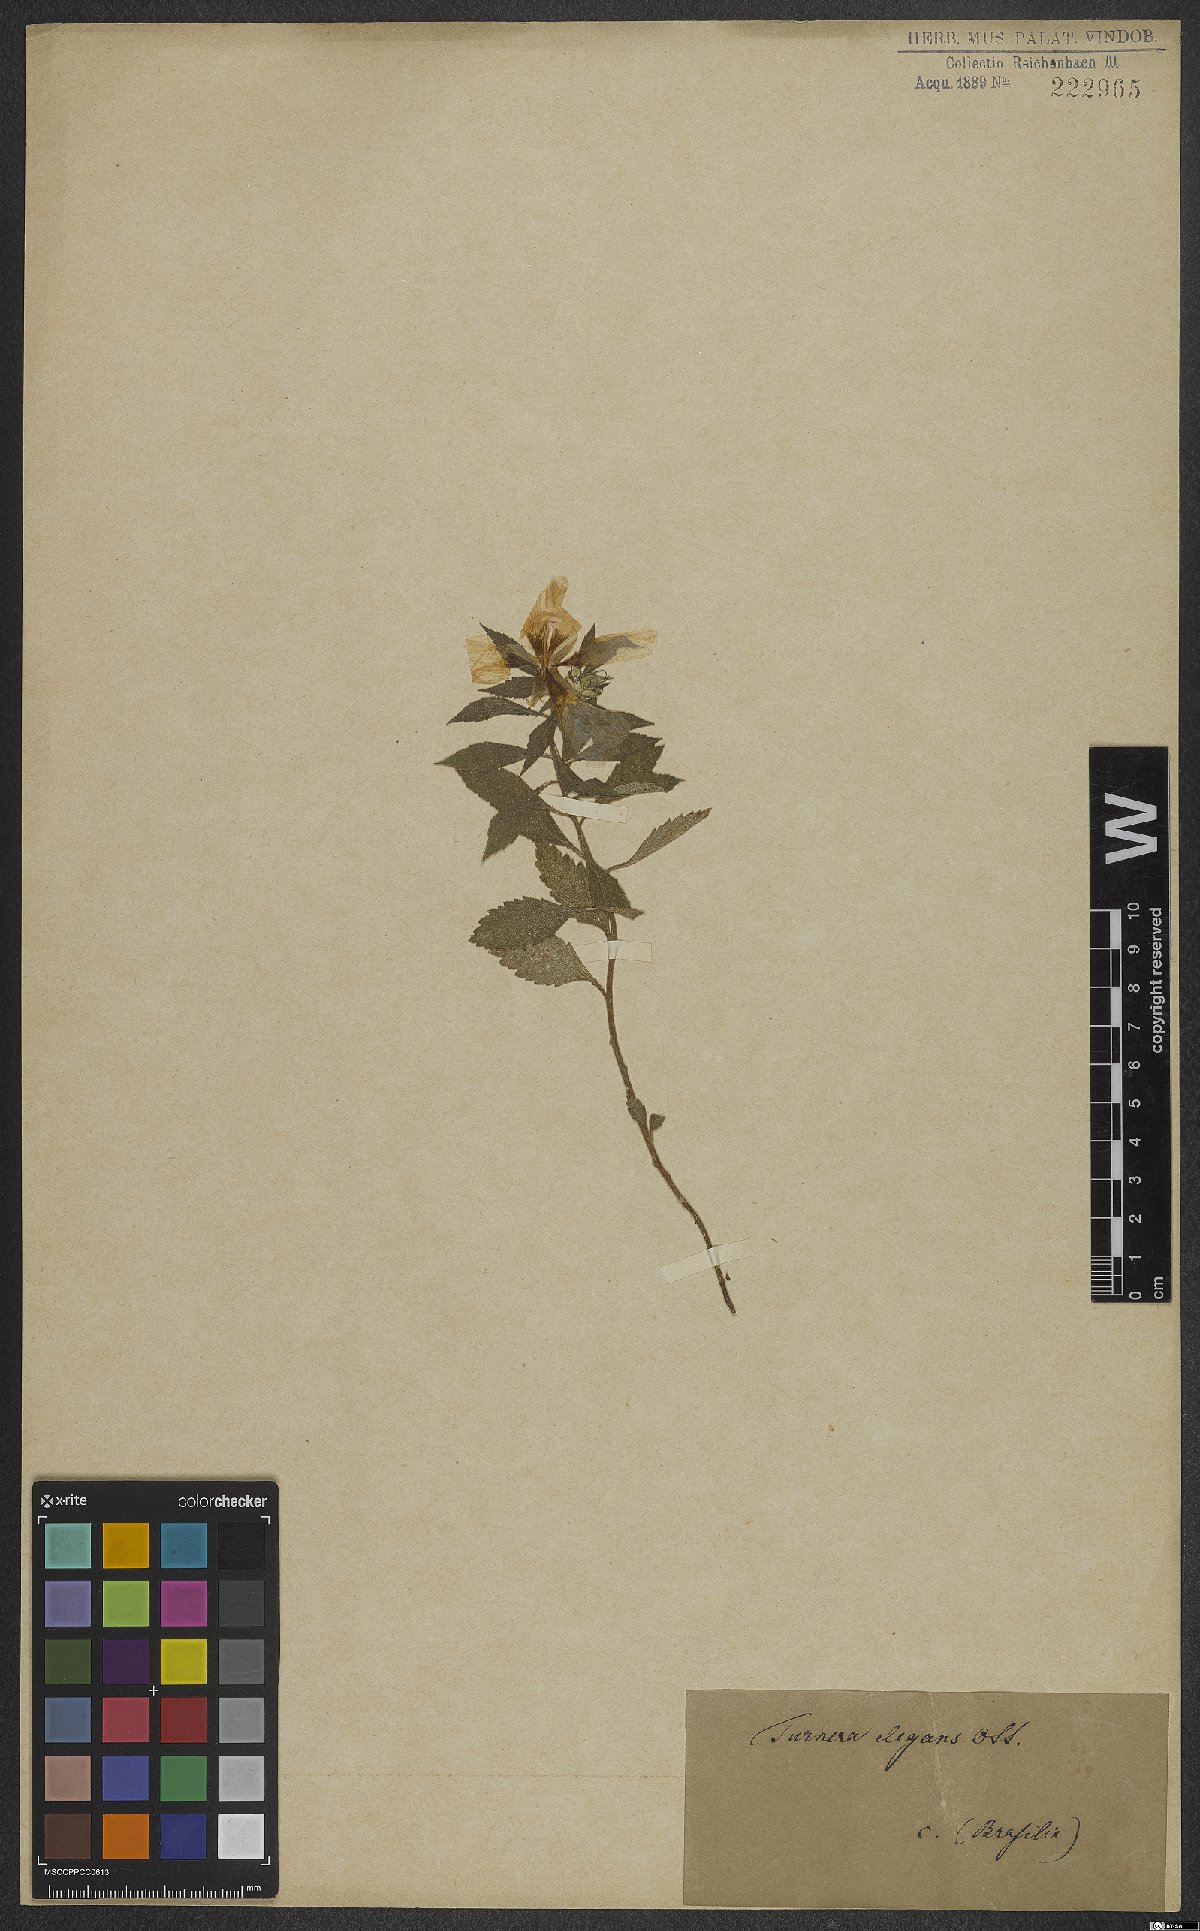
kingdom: Plantae
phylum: Tracheophyta
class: Magnoliopsida
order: Malpighiales
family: Turneraceae
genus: Turnera
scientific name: Turnera subulata
